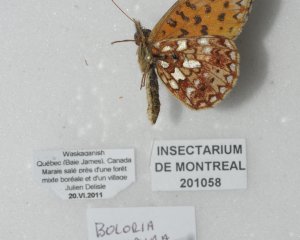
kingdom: Animalia
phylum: Arthropoda
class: Insecta
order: Lepidoptera
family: Nymphalidae
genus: Boloria
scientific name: Boloria selene
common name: Silver-bordered Fritillary
